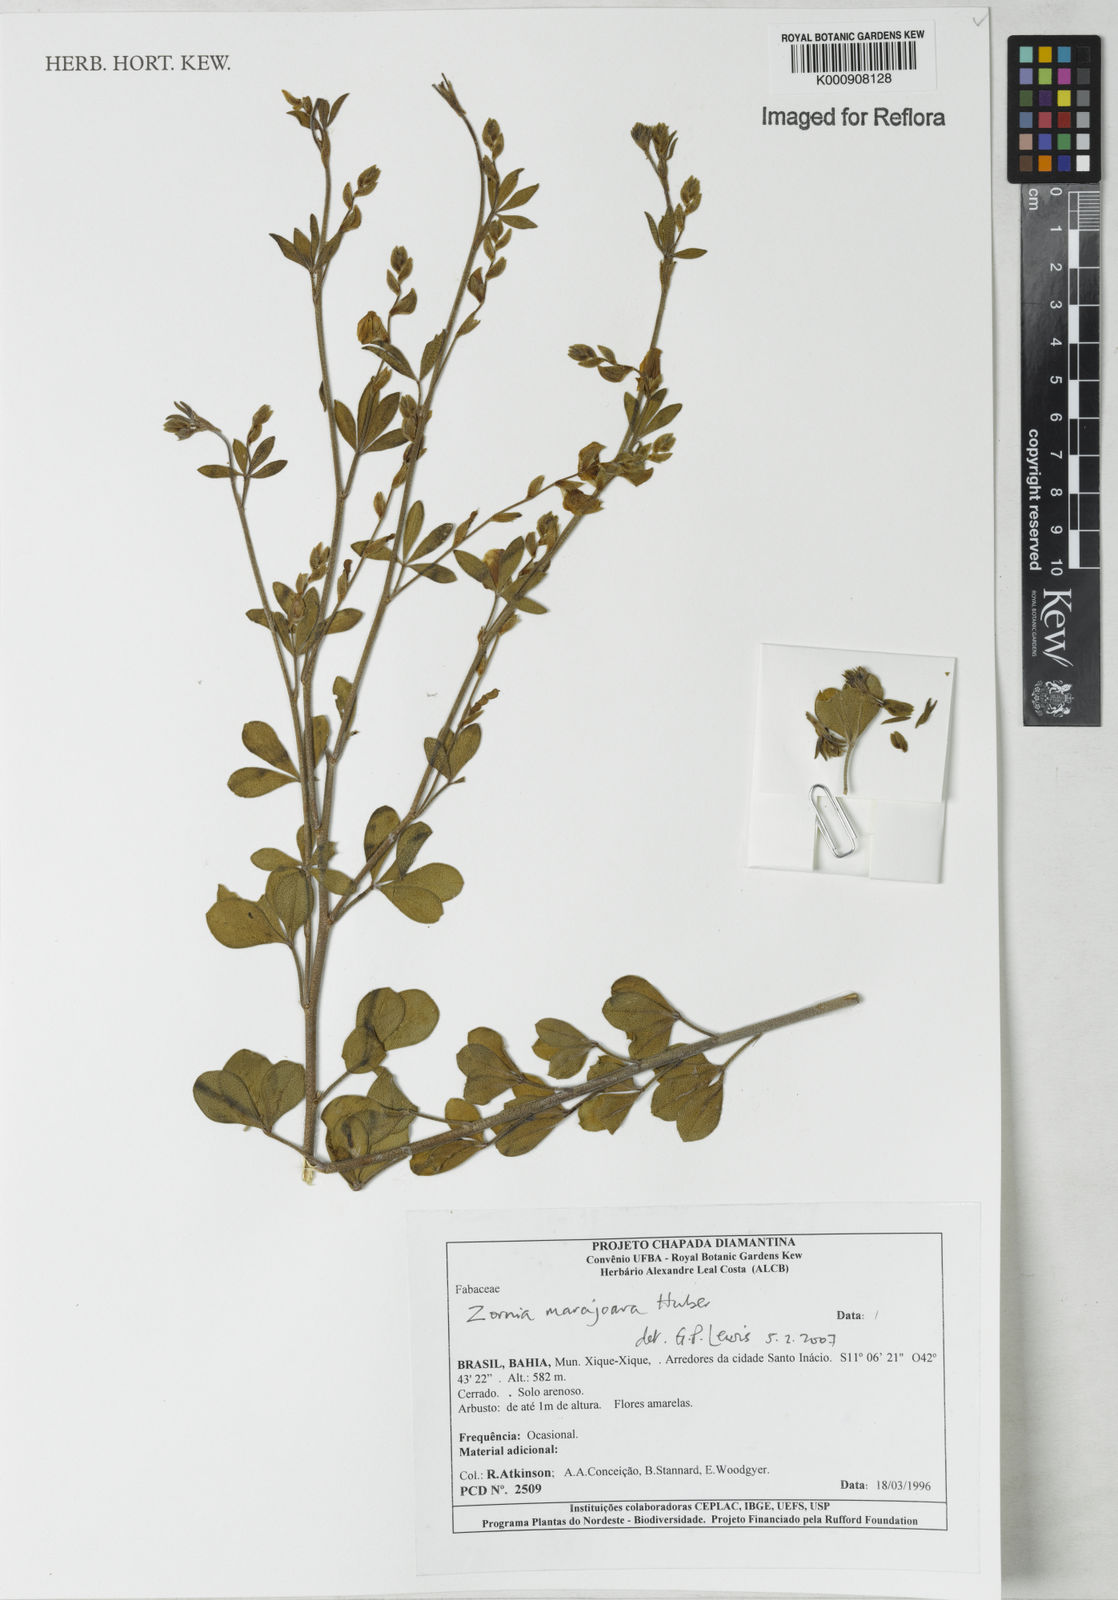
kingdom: Plantae
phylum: Tracheophyta
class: Magnoliopsida
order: Fabales
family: Fabaceae
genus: Zornia
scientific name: Zornia guanipensis
